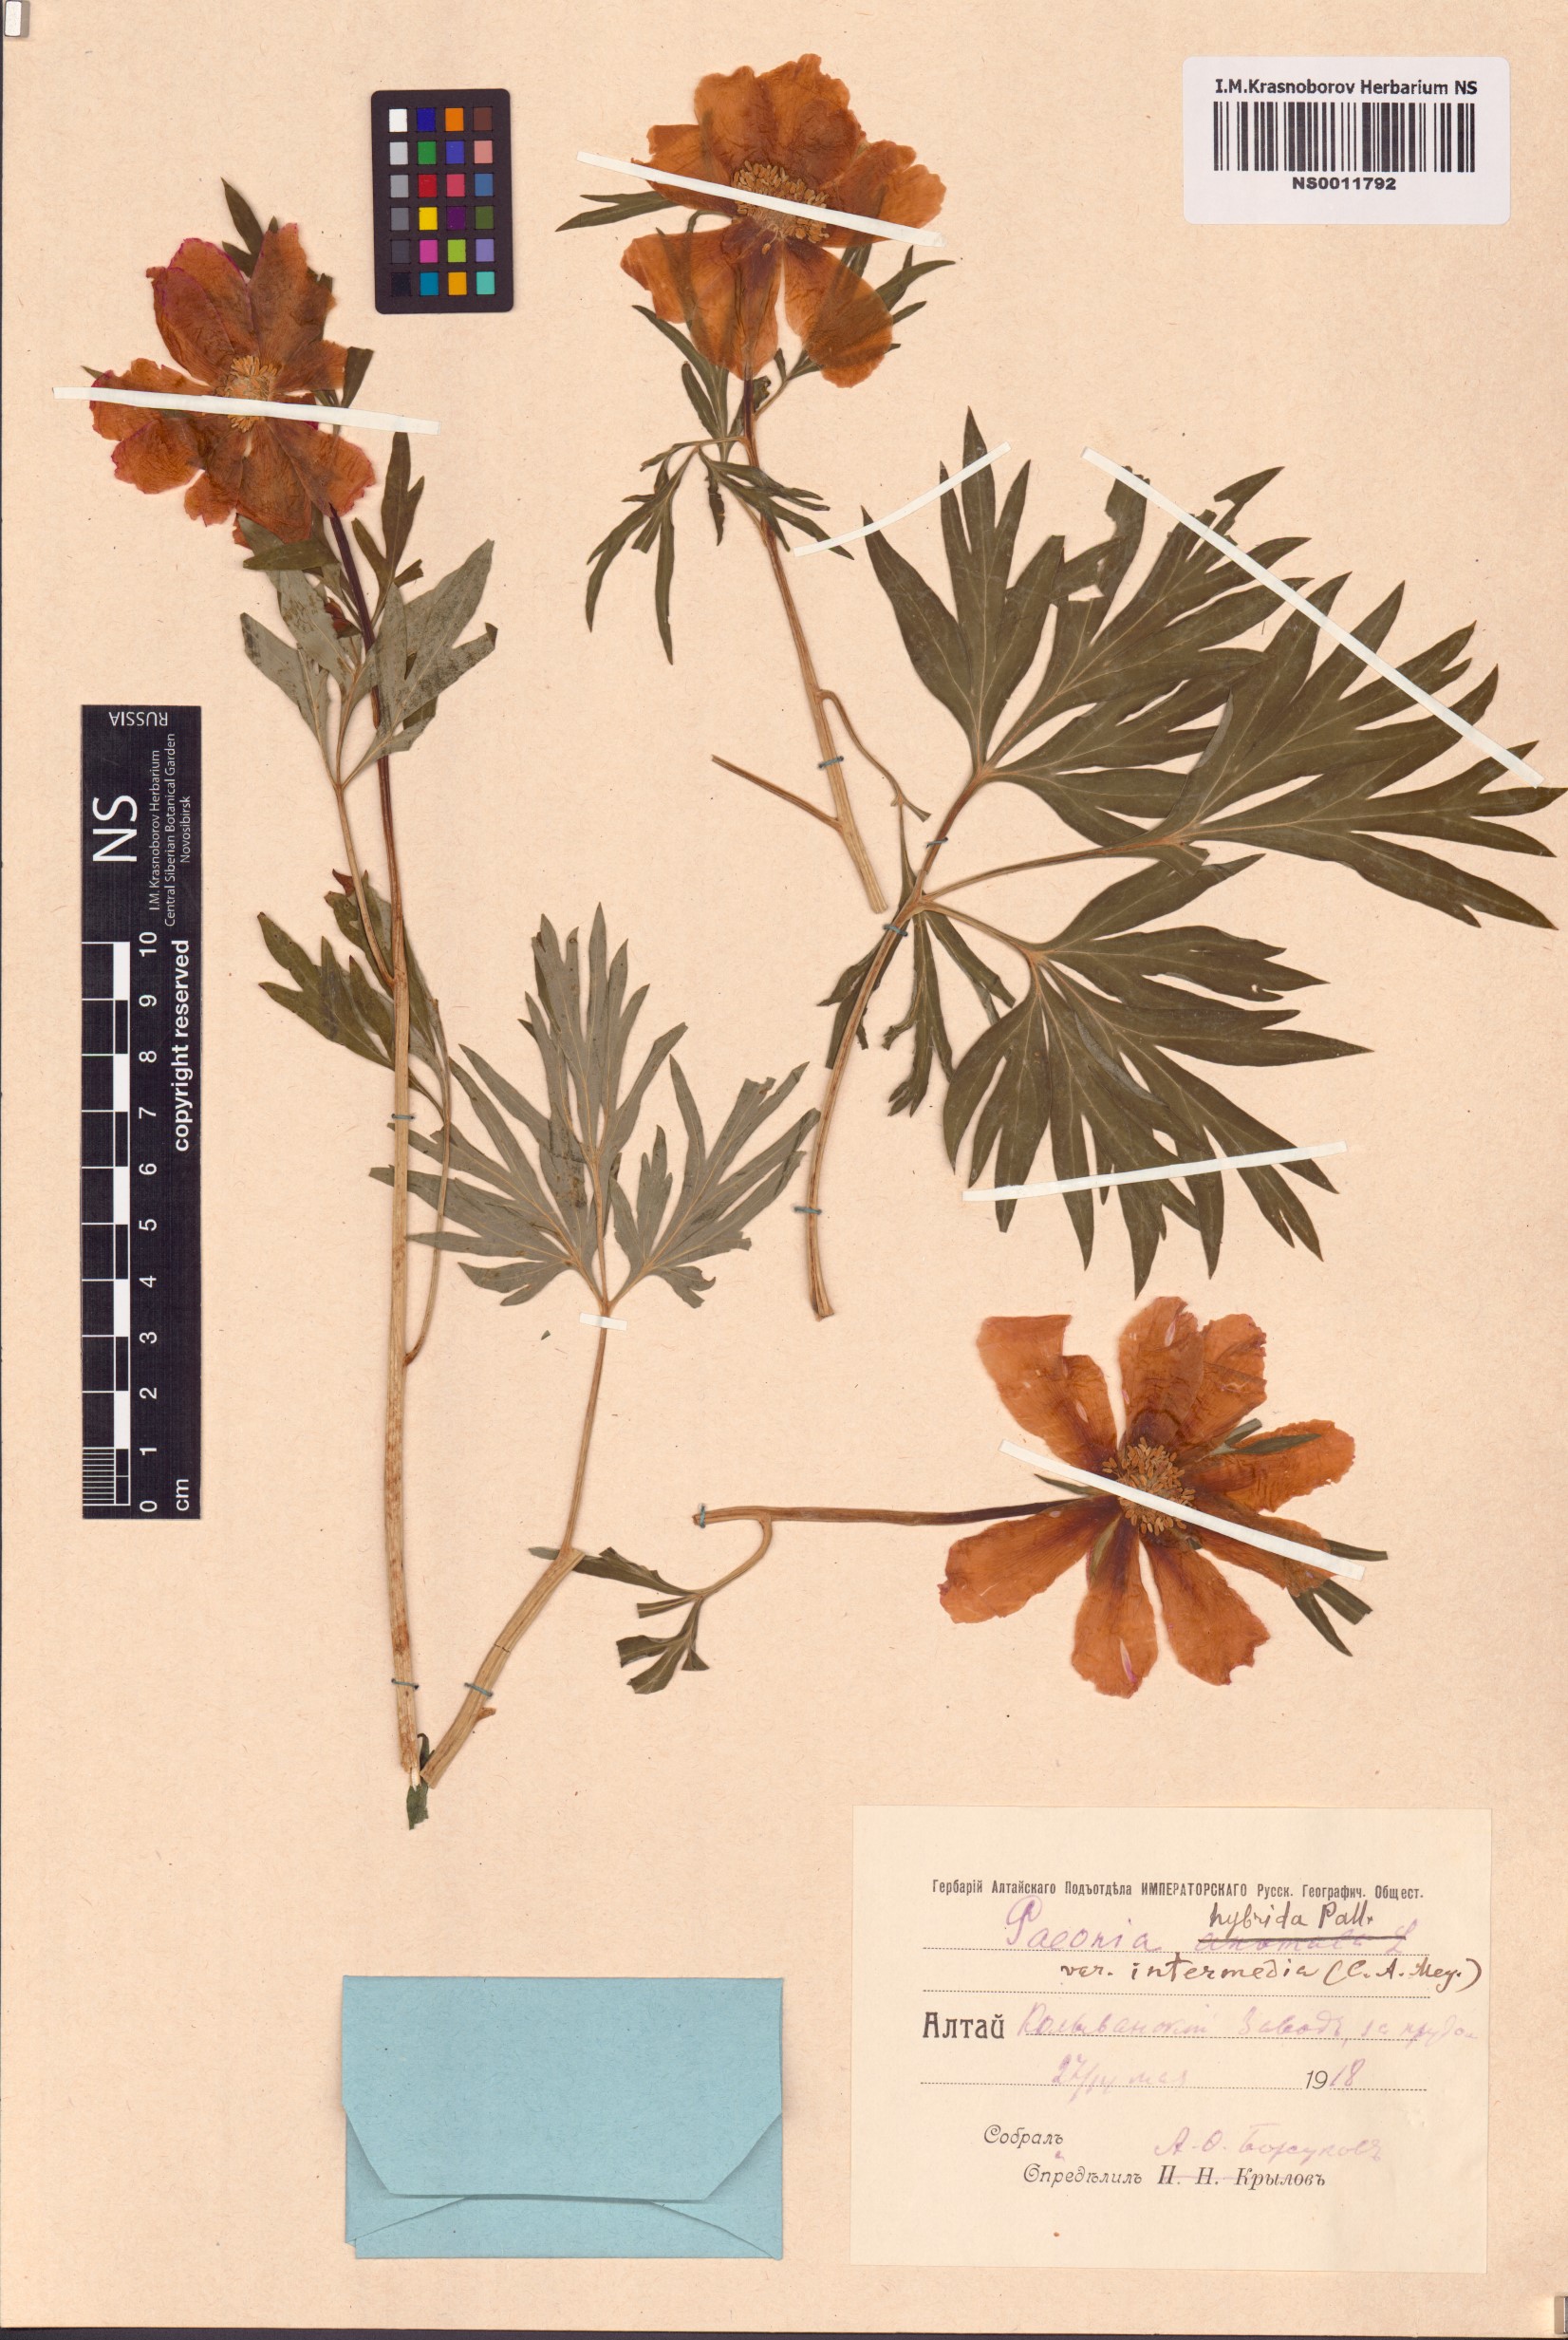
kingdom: Plantae
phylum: Tracheophyta
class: Magnoliopsida
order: Saxifragales
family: Paeoniaceae
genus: Paeonia
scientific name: Paeonia
